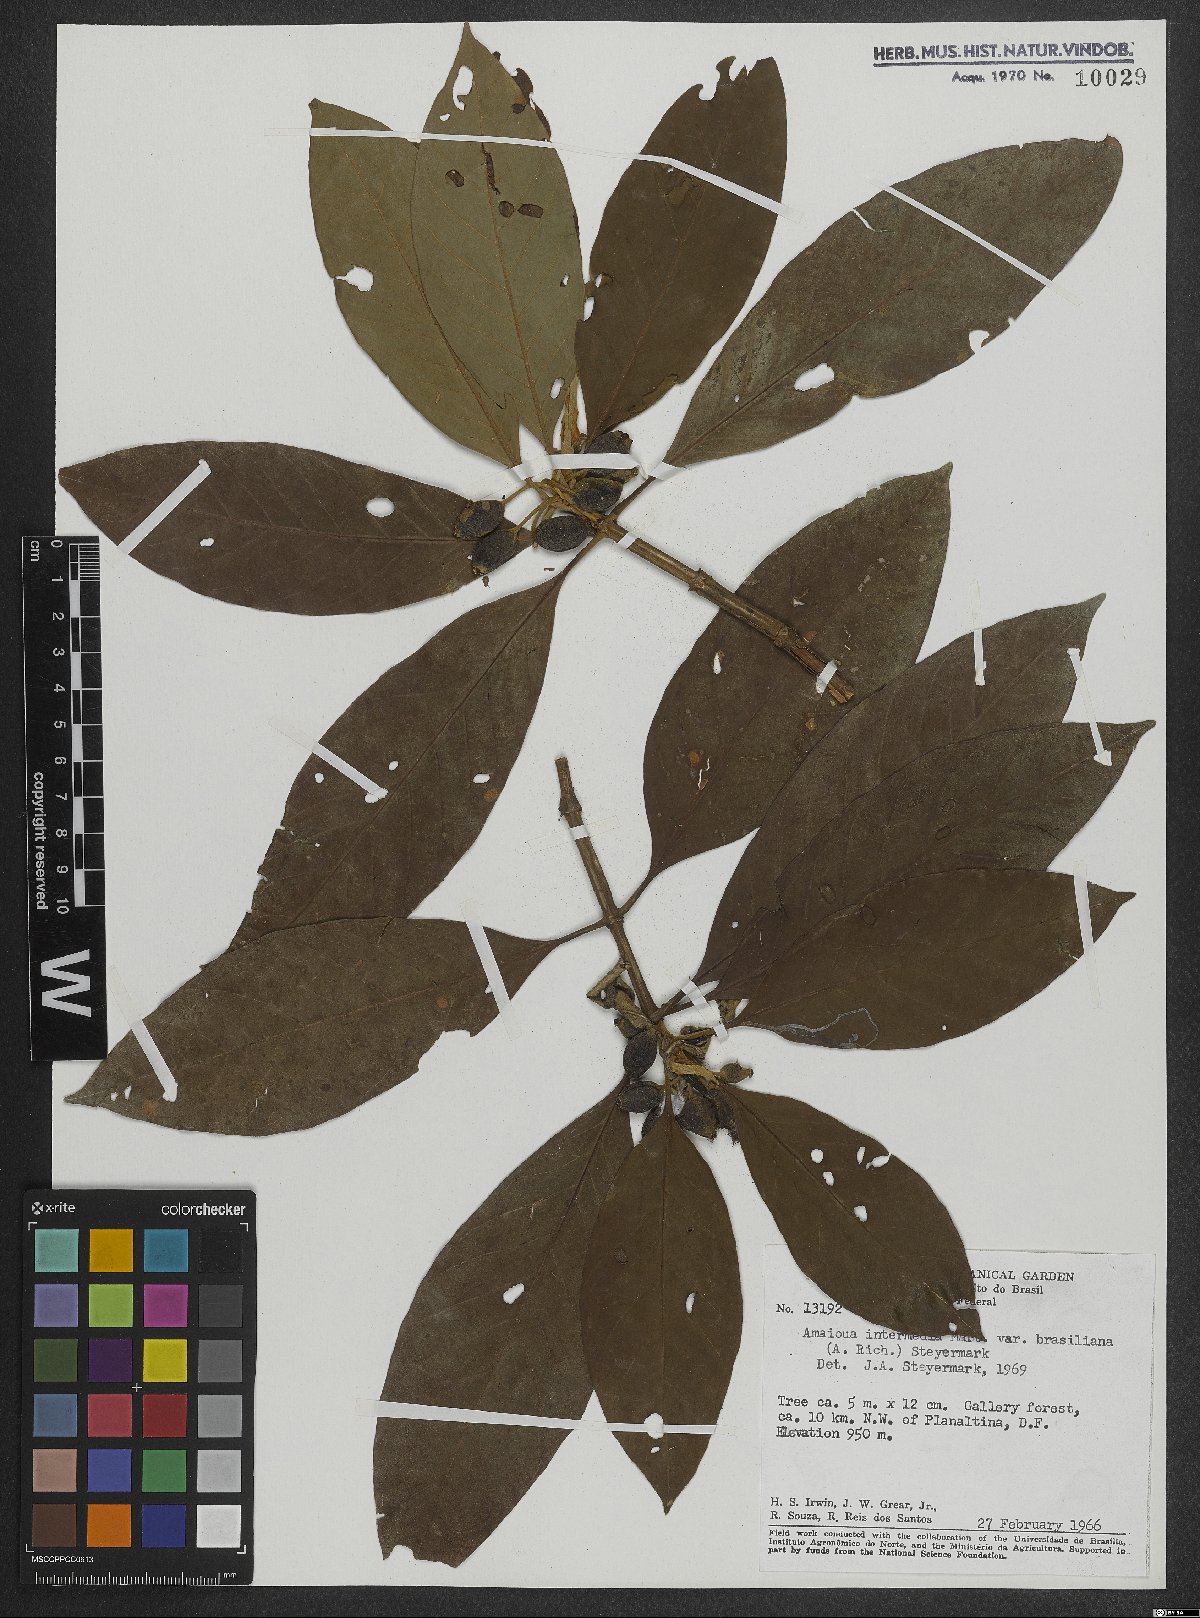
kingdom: Plantae
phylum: Tracheophyta
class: Magnoliopsida
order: Gentianales
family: Rubiaceae
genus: Amaioua
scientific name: Amaioua intermedia
